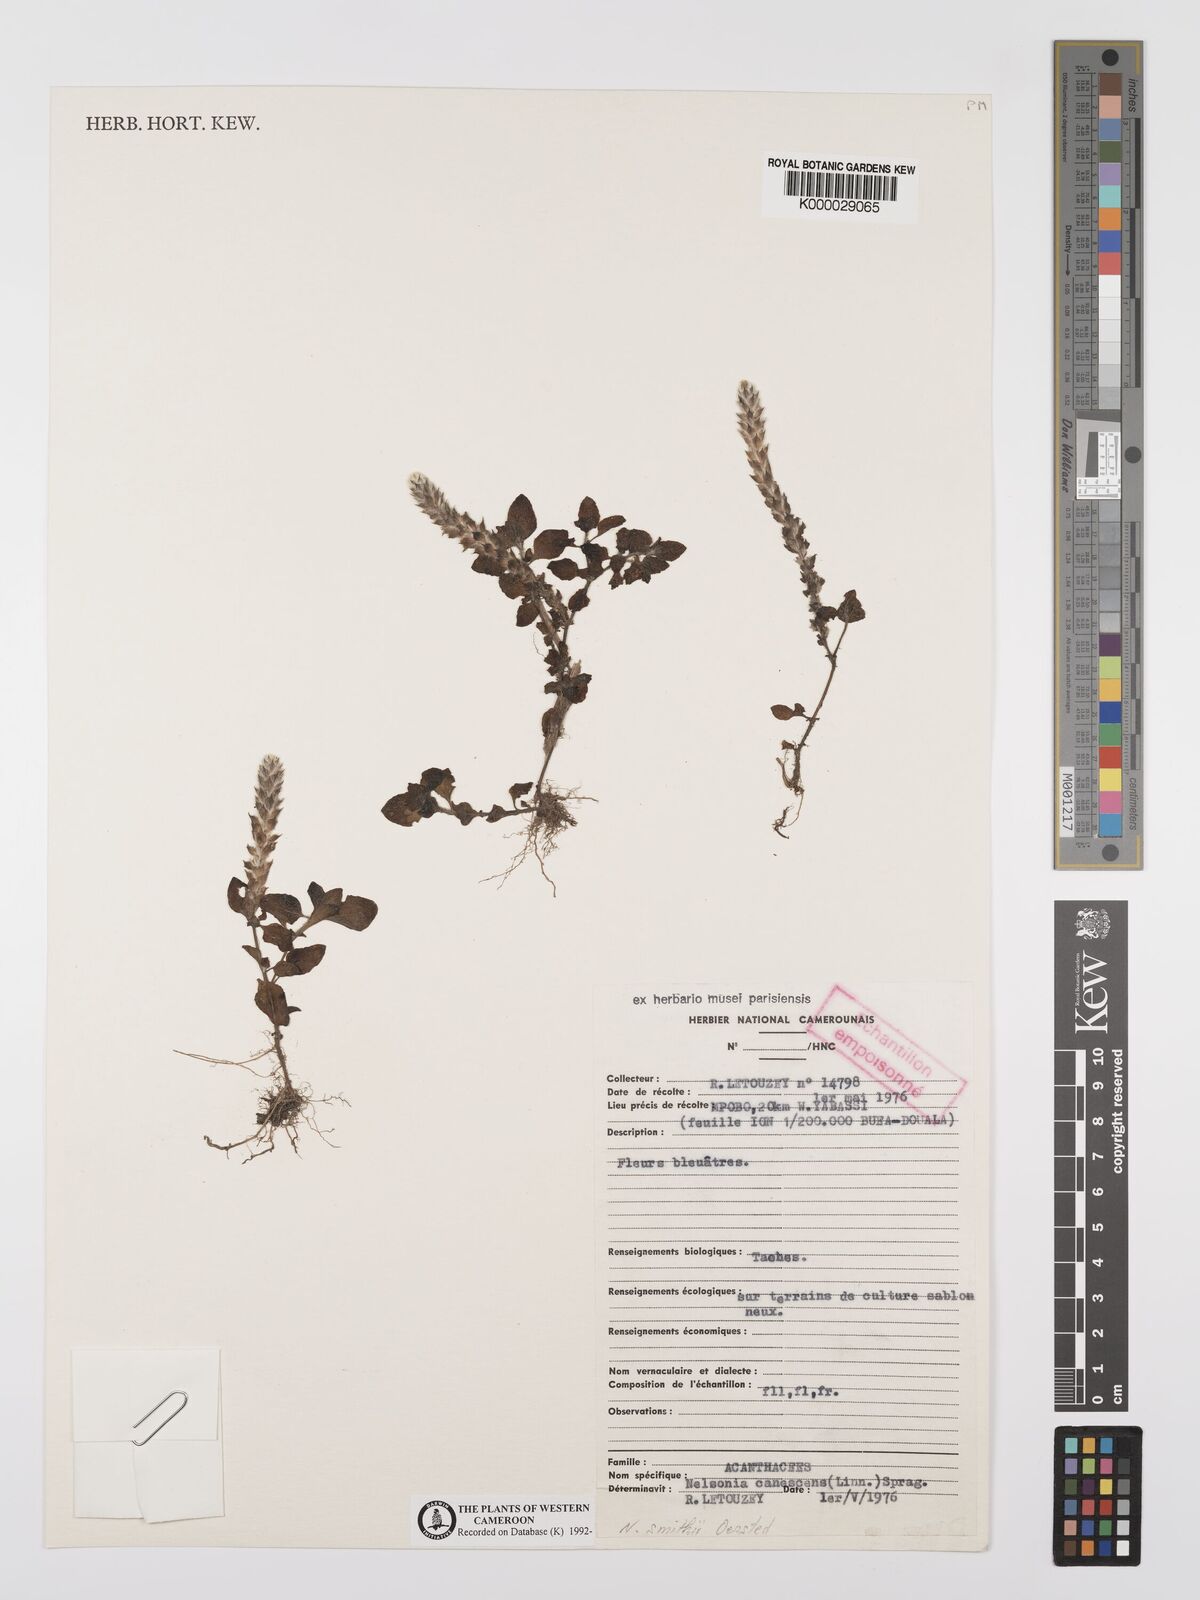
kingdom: Plantae
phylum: Tracheophyta
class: Magnoliopsida
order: Lamiales
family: Acanthaceae
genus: Nelsonia
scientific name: Nelsonia smithii
